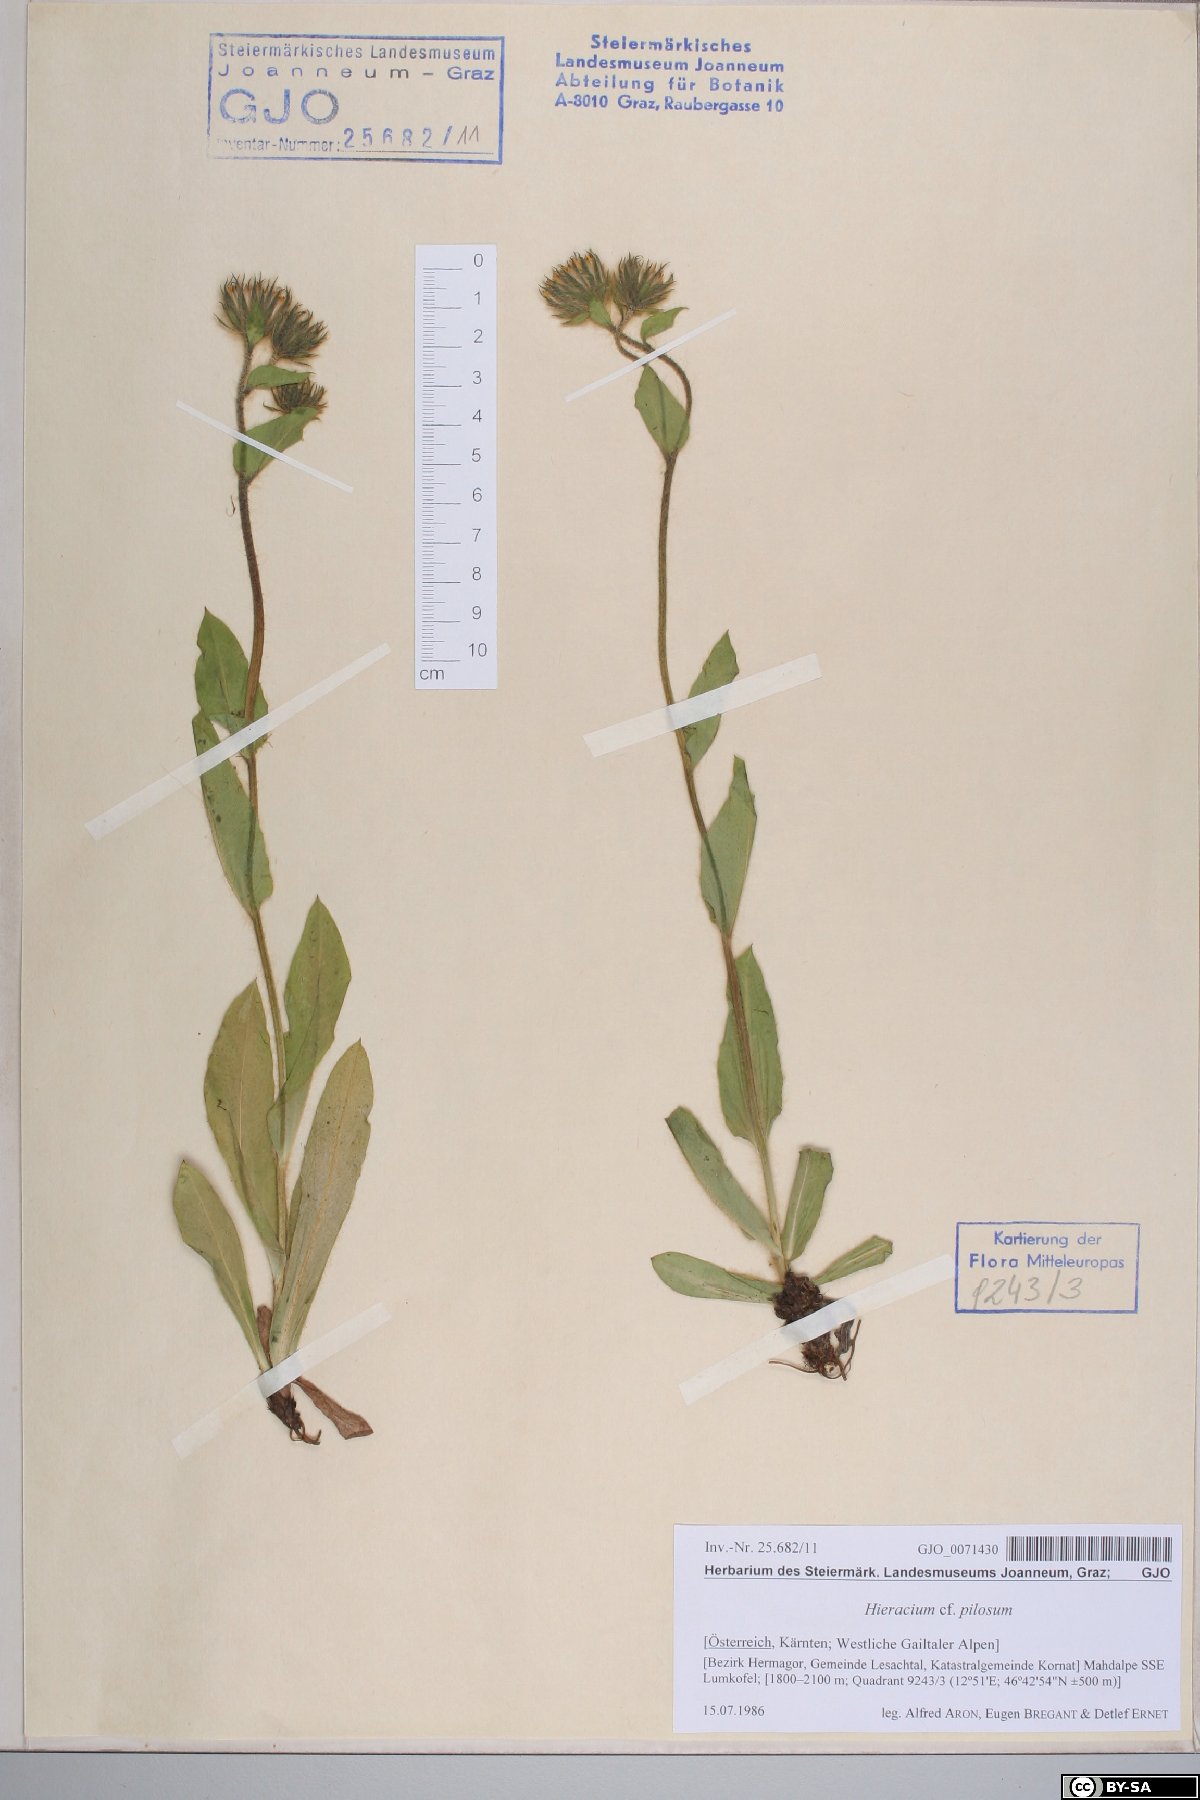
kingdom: Plantae
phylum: Tracheophyta
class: Magnoliopsida
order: Asterales
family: Asteraceae
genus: Hieracium
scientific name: Hieracium pilosum
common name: Fimbriate-pitted hawkweed
